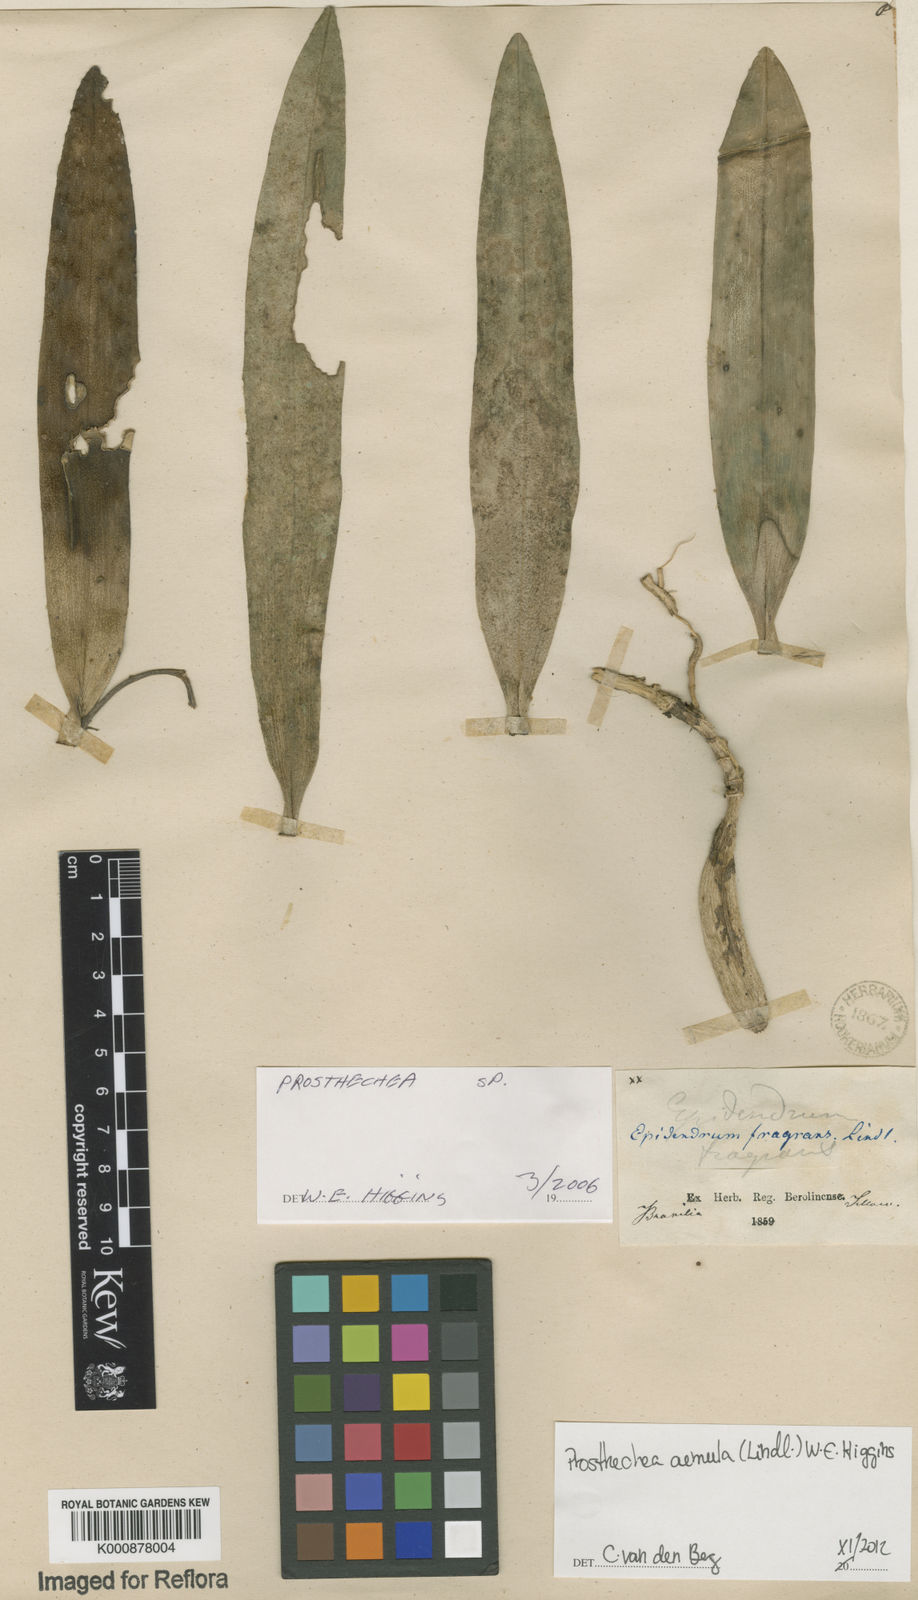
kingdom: Plantae
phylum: Tracheophyta
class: Liliopsida
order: Asparagales
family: Orchidaceae
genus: Prosthechea
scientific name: Prosthechea aemula
